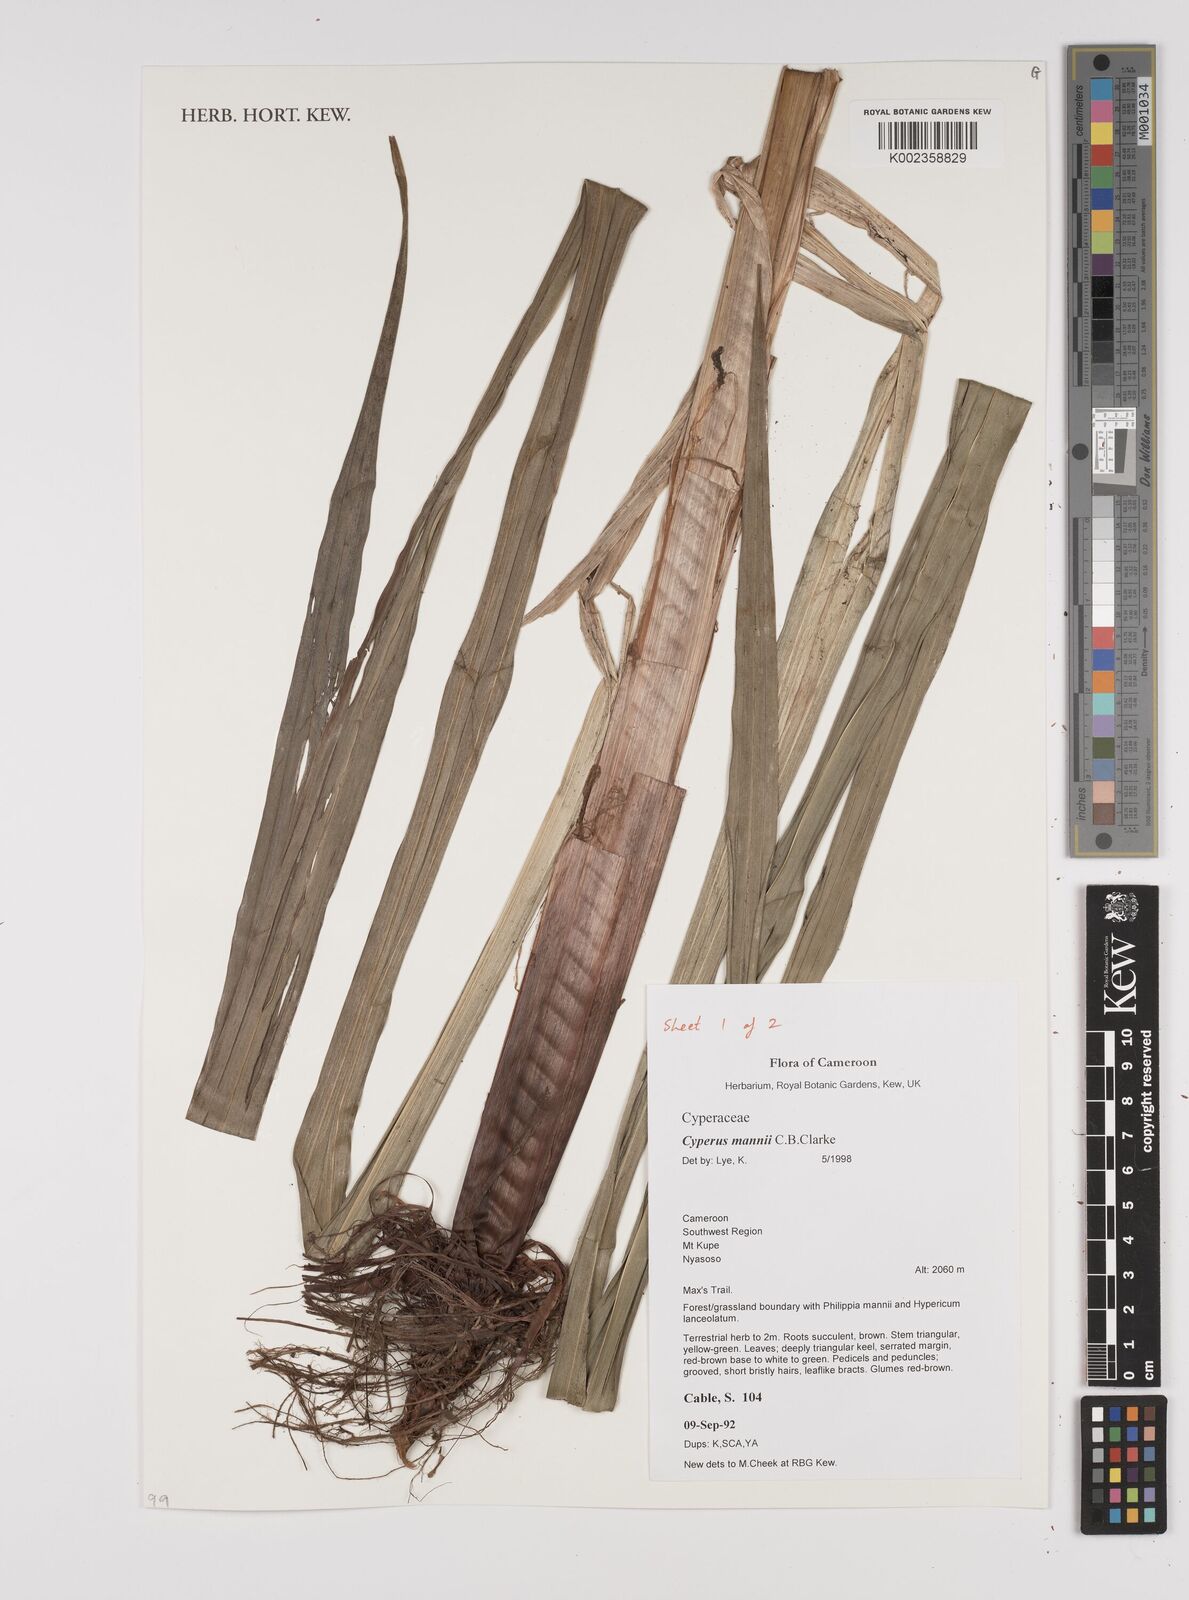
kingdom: Plantae
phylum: Tracheophyta
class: Liliopsida
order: Poales
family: Cyperaceae
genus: Cyperus
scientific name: Cyperus baronii
